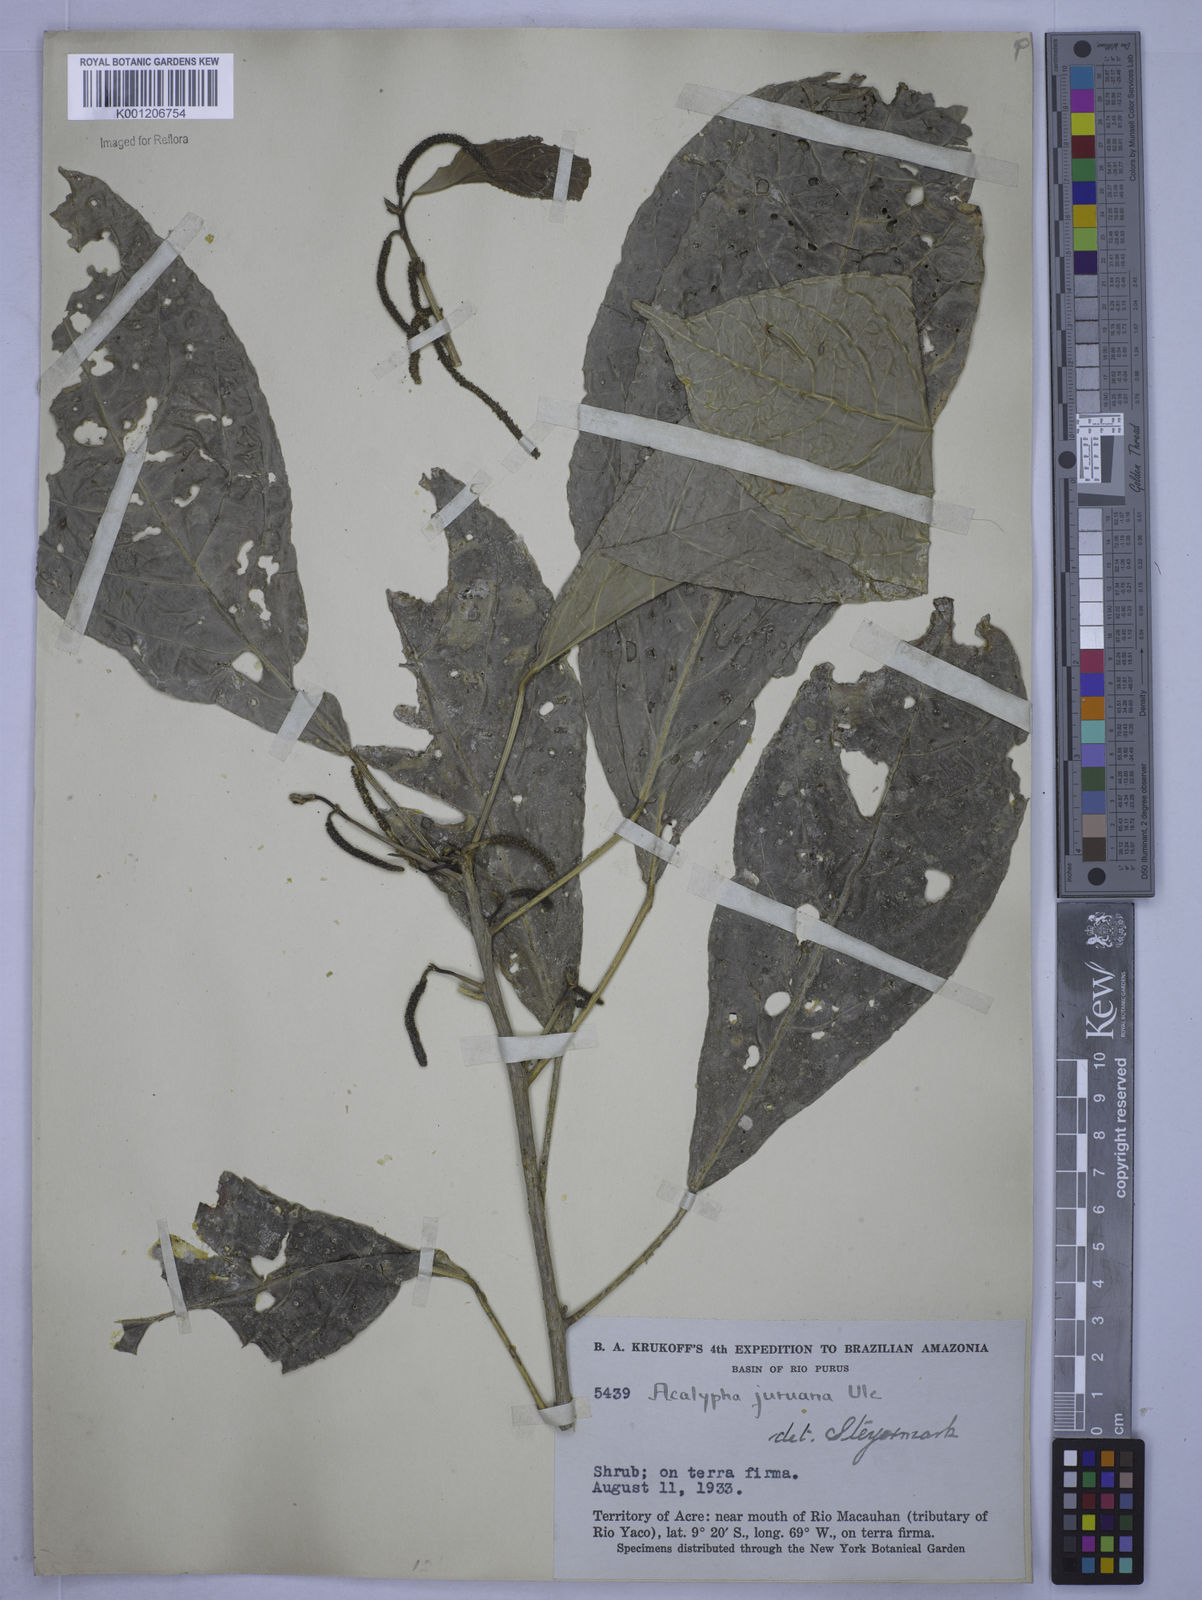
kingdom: Plantae
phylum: Tracheophyta
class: Magnoliopsida
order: Malpighiales
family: Euphorbiaceae
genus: Acalypha
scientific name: Acalypha juruana
